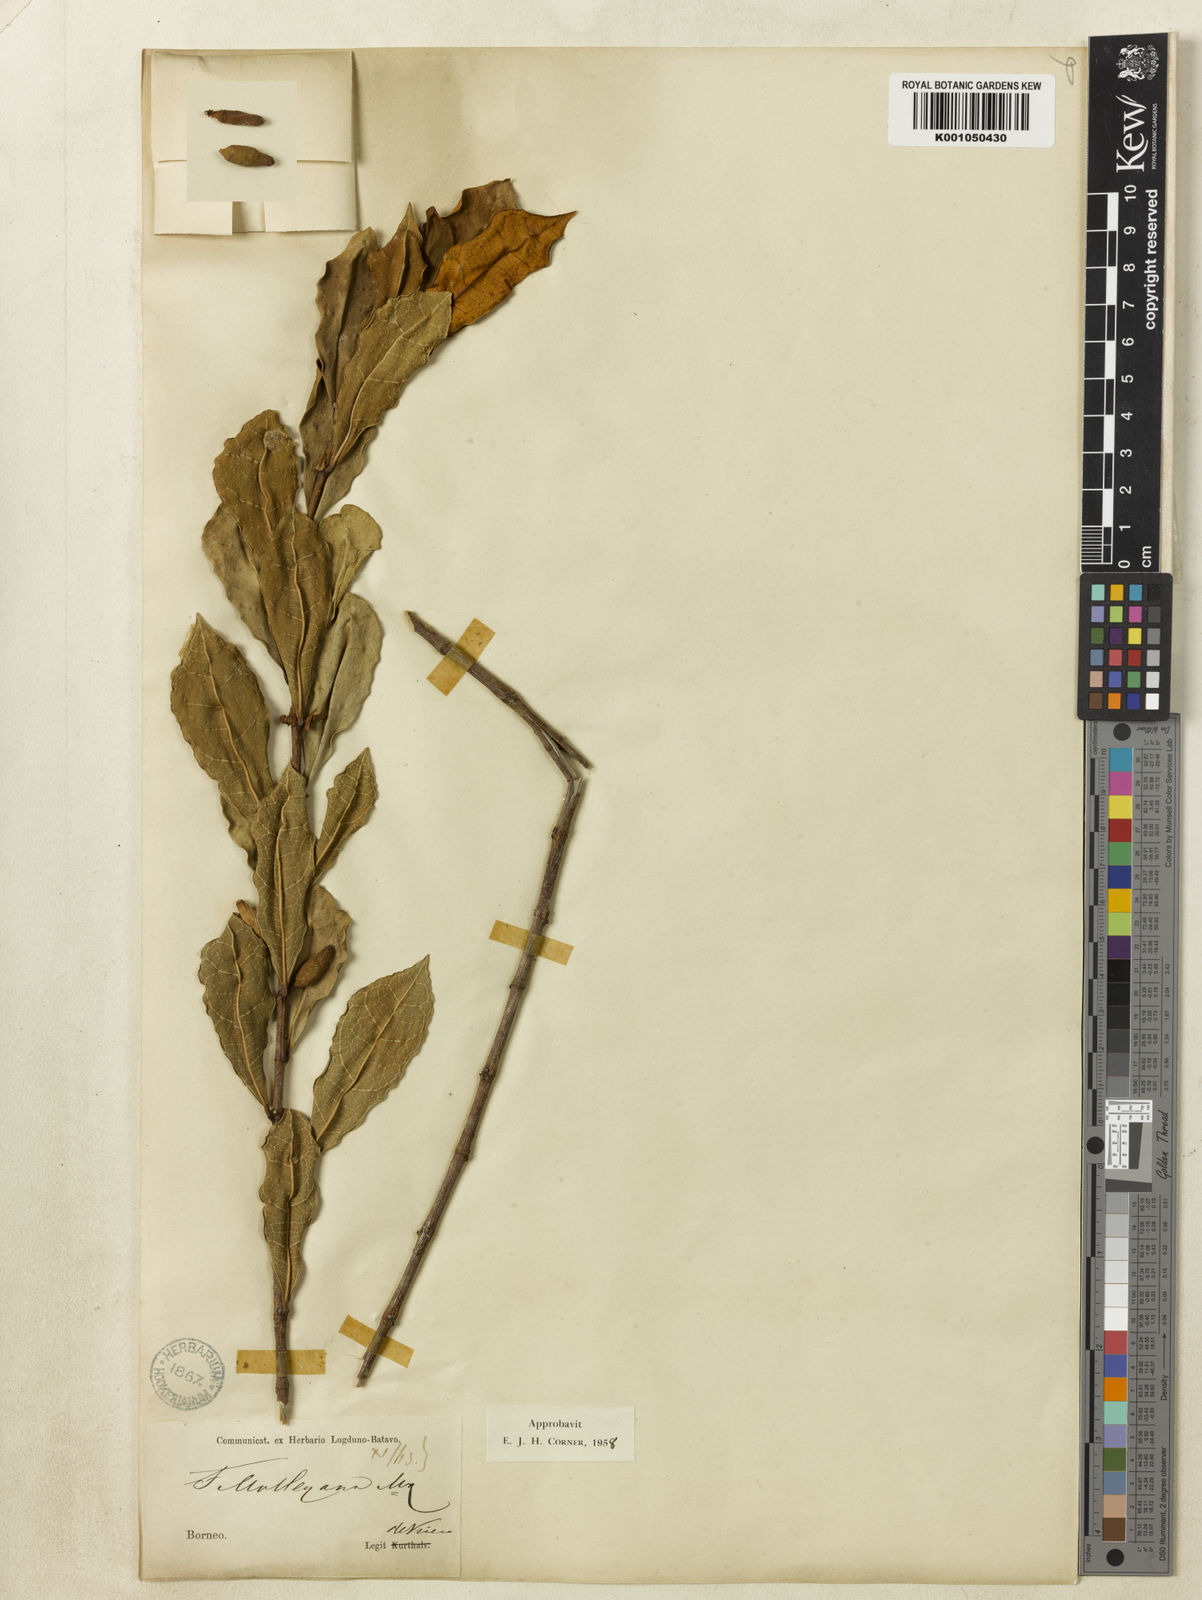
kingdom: Plantae
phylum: Tracheophyta
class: Magnoliopsida
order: Rosales
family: Moraceae
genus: Ficus
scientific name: Ficus deltoidea
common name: Mistletoe fig
